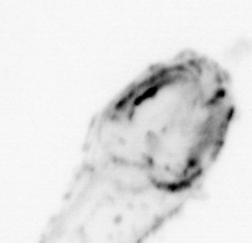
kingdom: Animalia
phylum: Chaetognatha
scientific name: Chaetognatha
